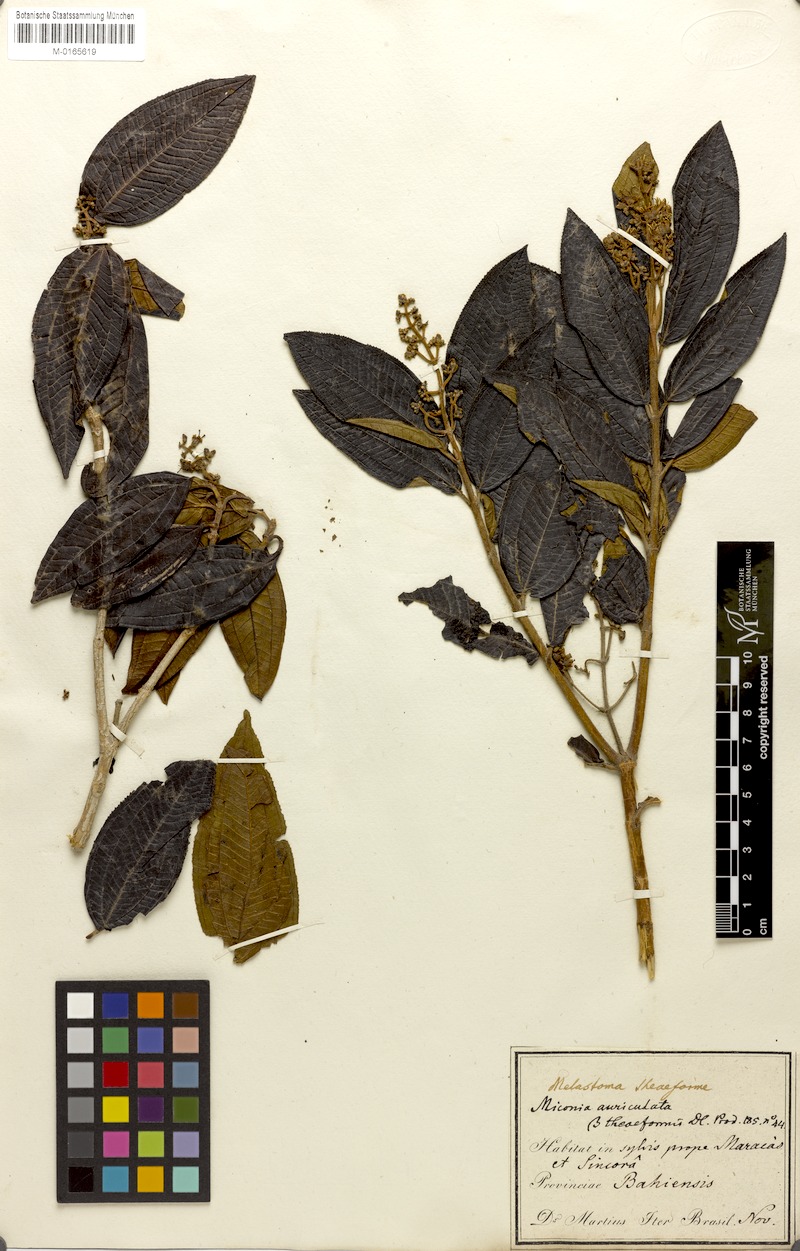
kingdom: Plantae
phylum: Tracheophyta
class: Magnoliopsida
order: Myrtales
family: Melastomataceae
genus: Miconia
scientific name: Miconia ibaguensis
